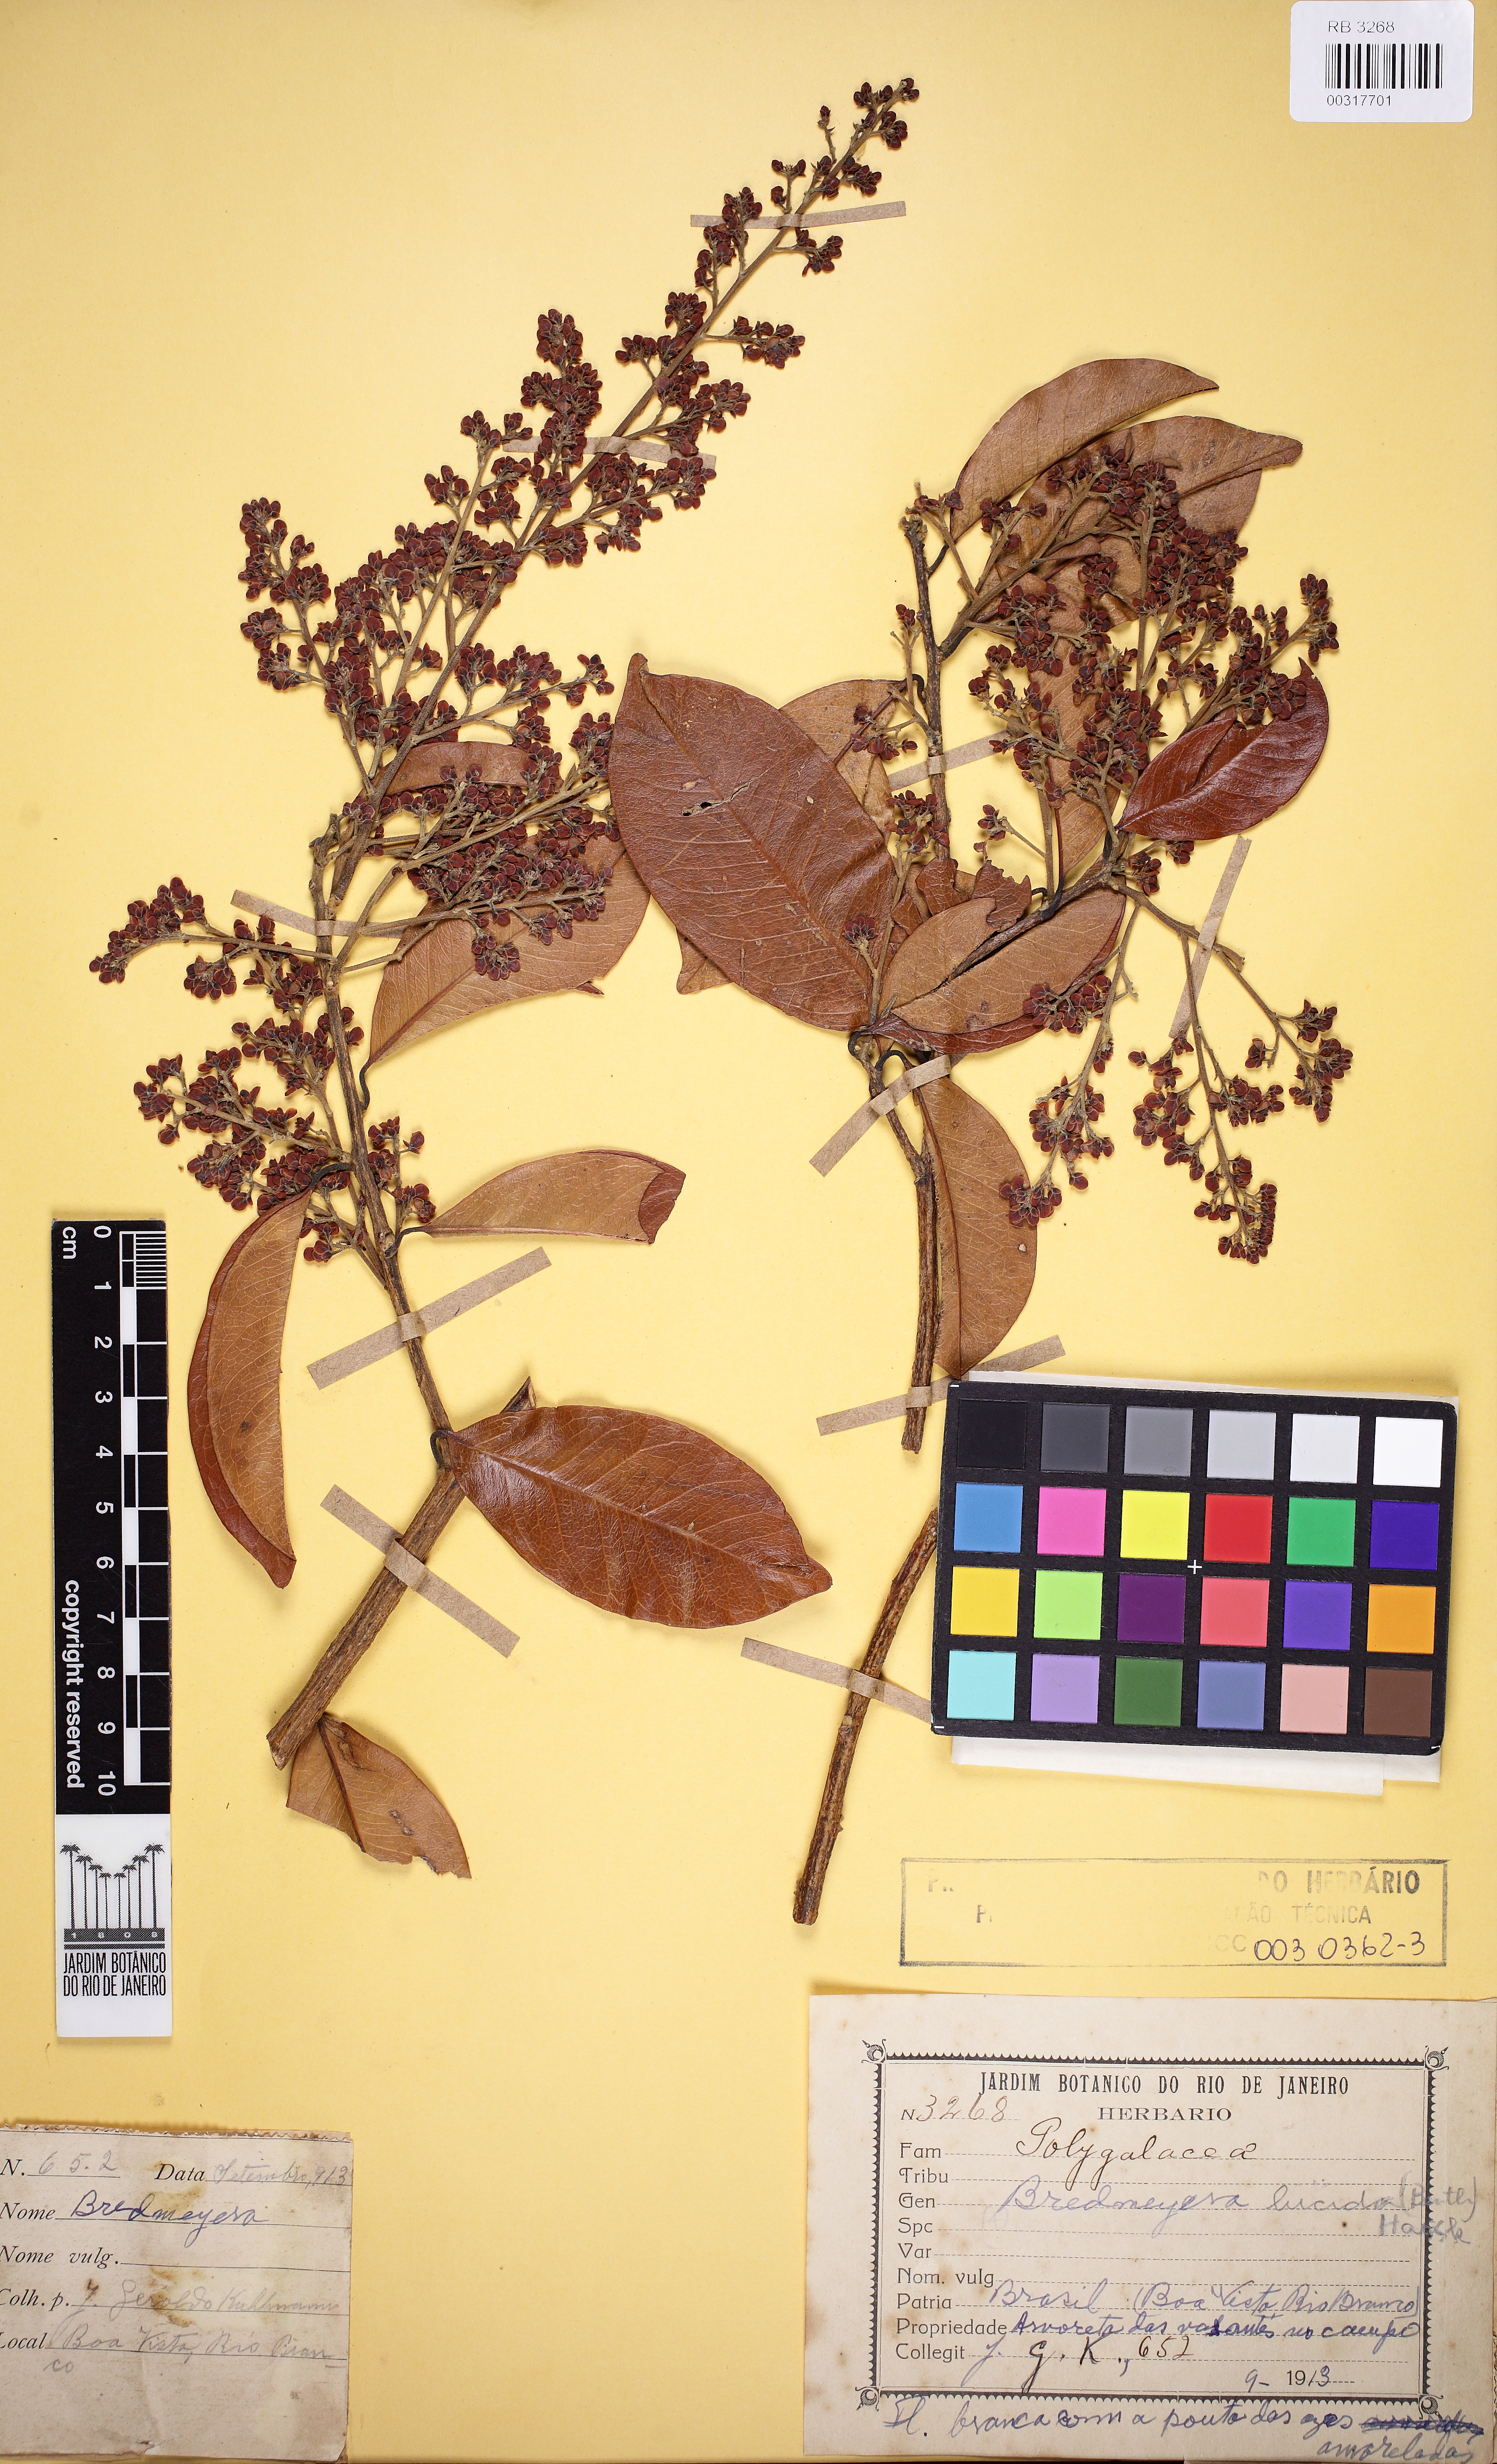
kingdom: Plantae
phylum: Tracheophyta
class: Magnoliopsida
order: Fabales
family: Polygalaceae
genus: Bredemeyera
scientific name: Bredemeyera lucida
